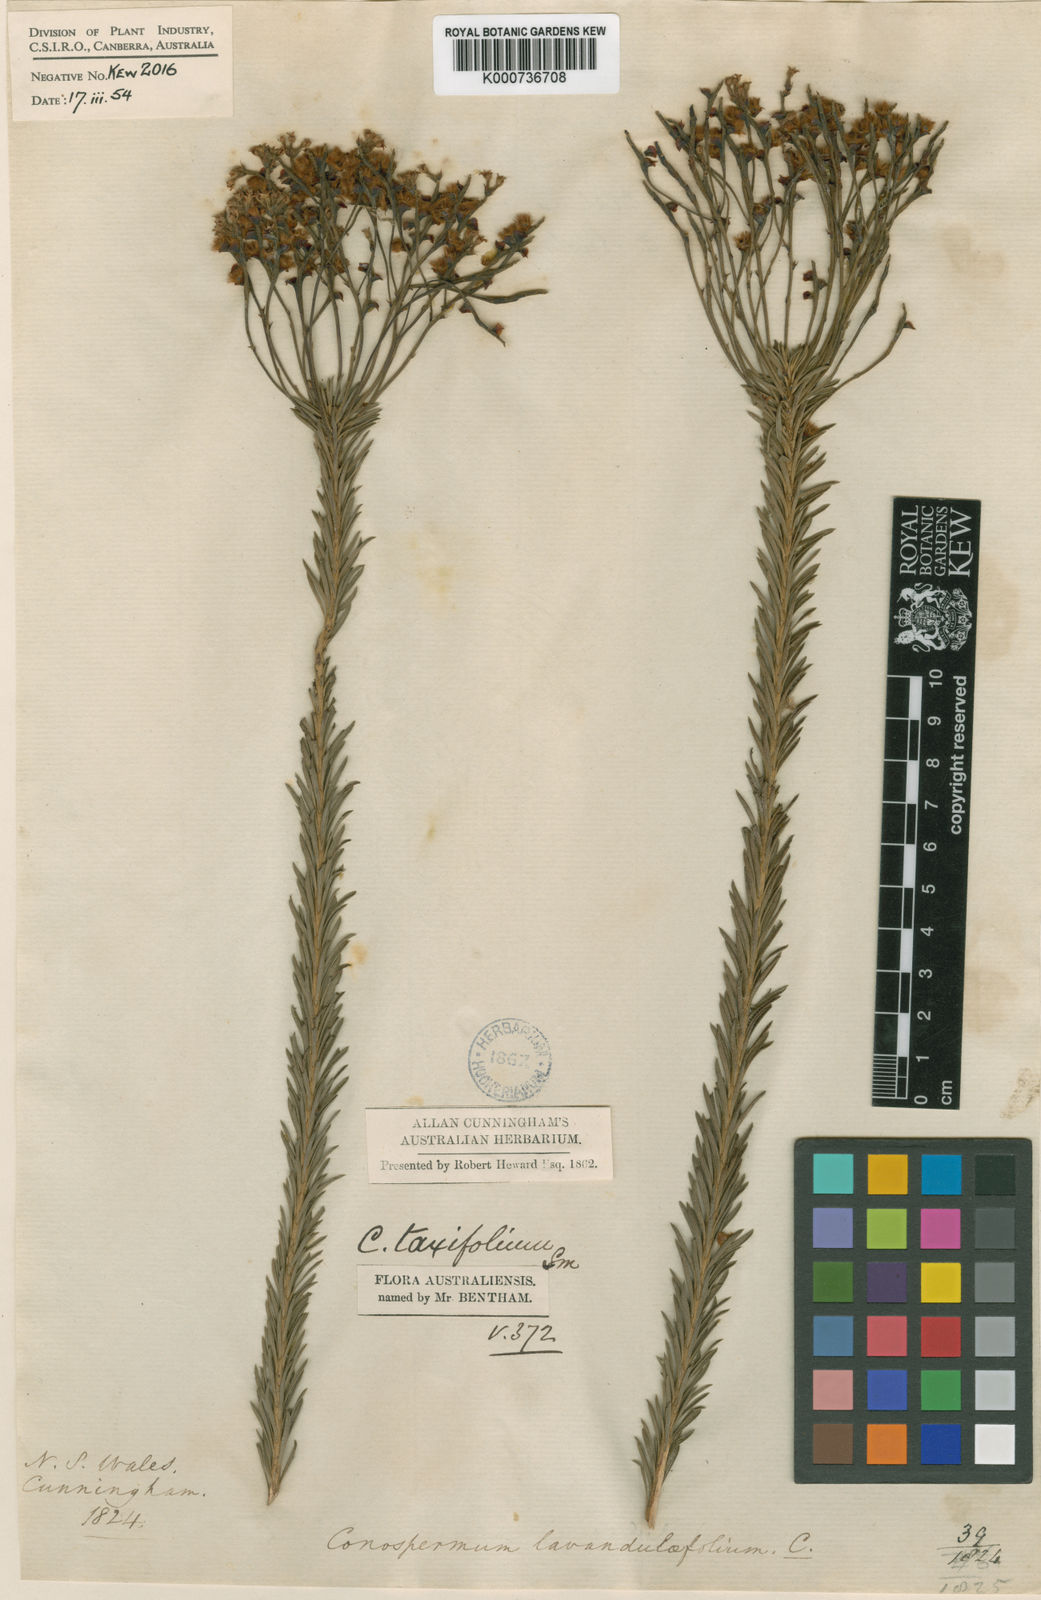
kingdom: Plantae
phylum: Tracheophyta
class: Magnoliopsida
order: Proteales
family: Proteaceae
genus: Conospermum
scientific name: Conospermum taxifolium
